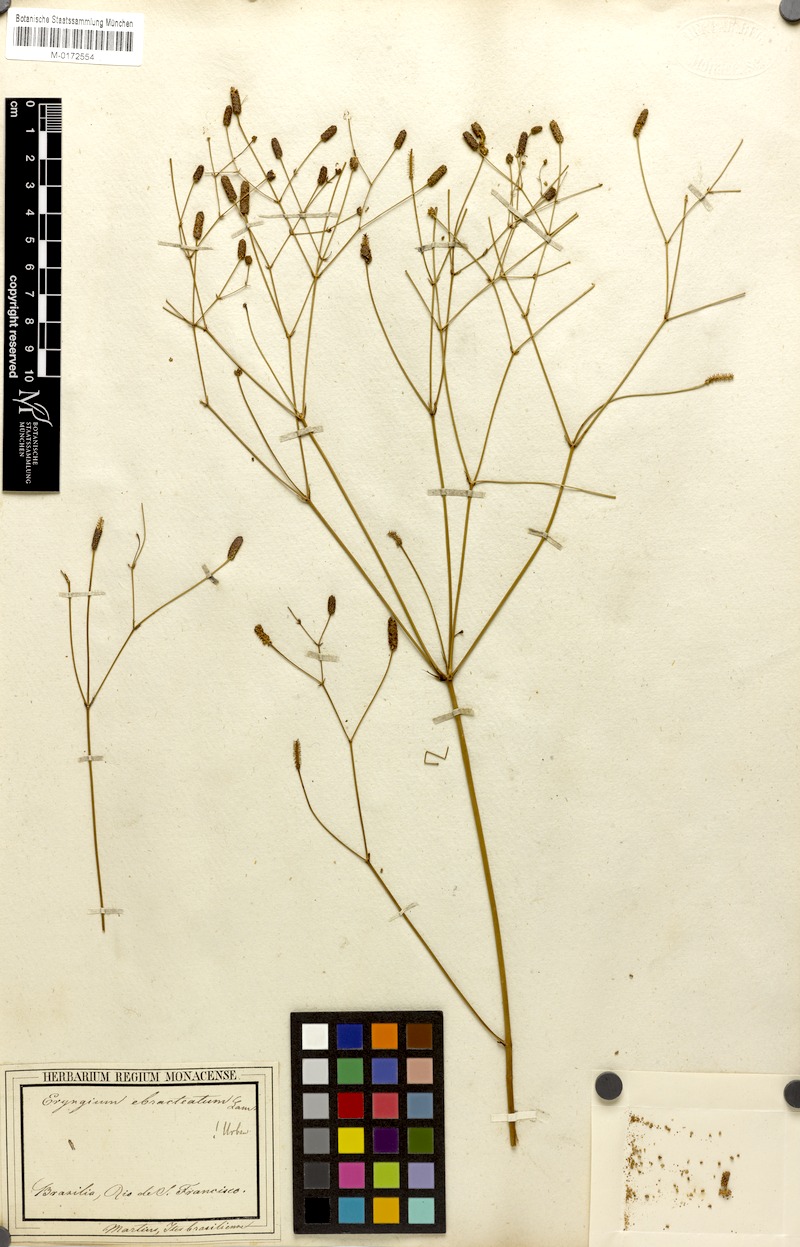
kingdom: Plantae
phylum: Tracheophyta
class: Magnoliopsida
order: Apiales
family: Apiaceae
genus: Eryngium
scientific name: Eryngium ebracteatum
